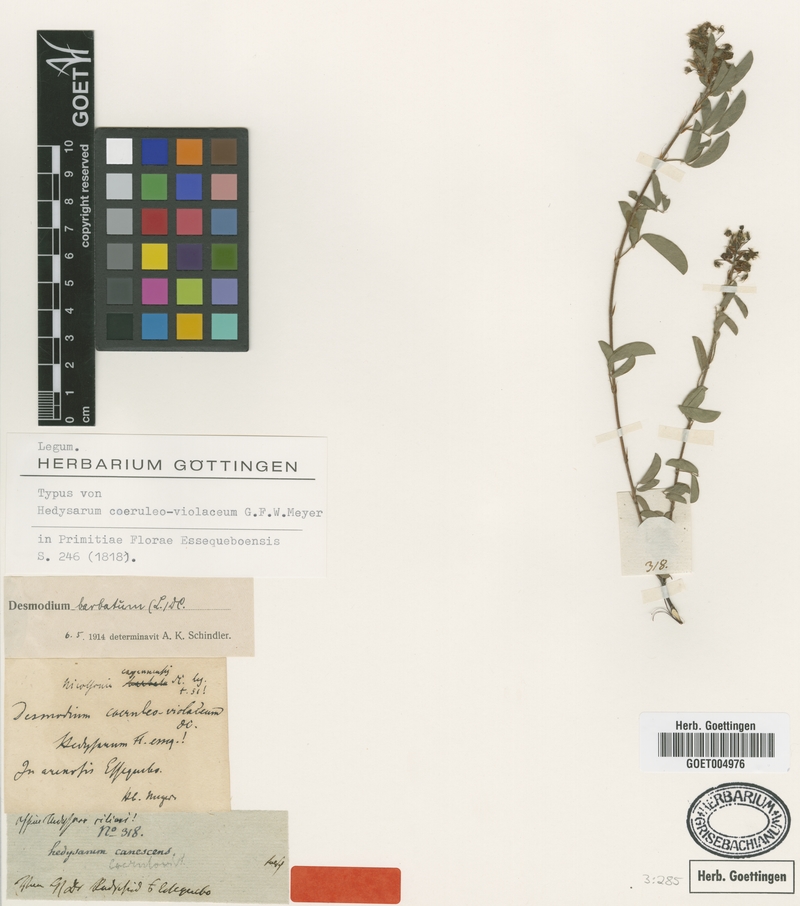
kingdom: Plantae
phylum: Tracheophyta
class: Magnoliopsida
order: Fabales
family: Fabaceae
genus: Grona
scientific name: Grona barbata
